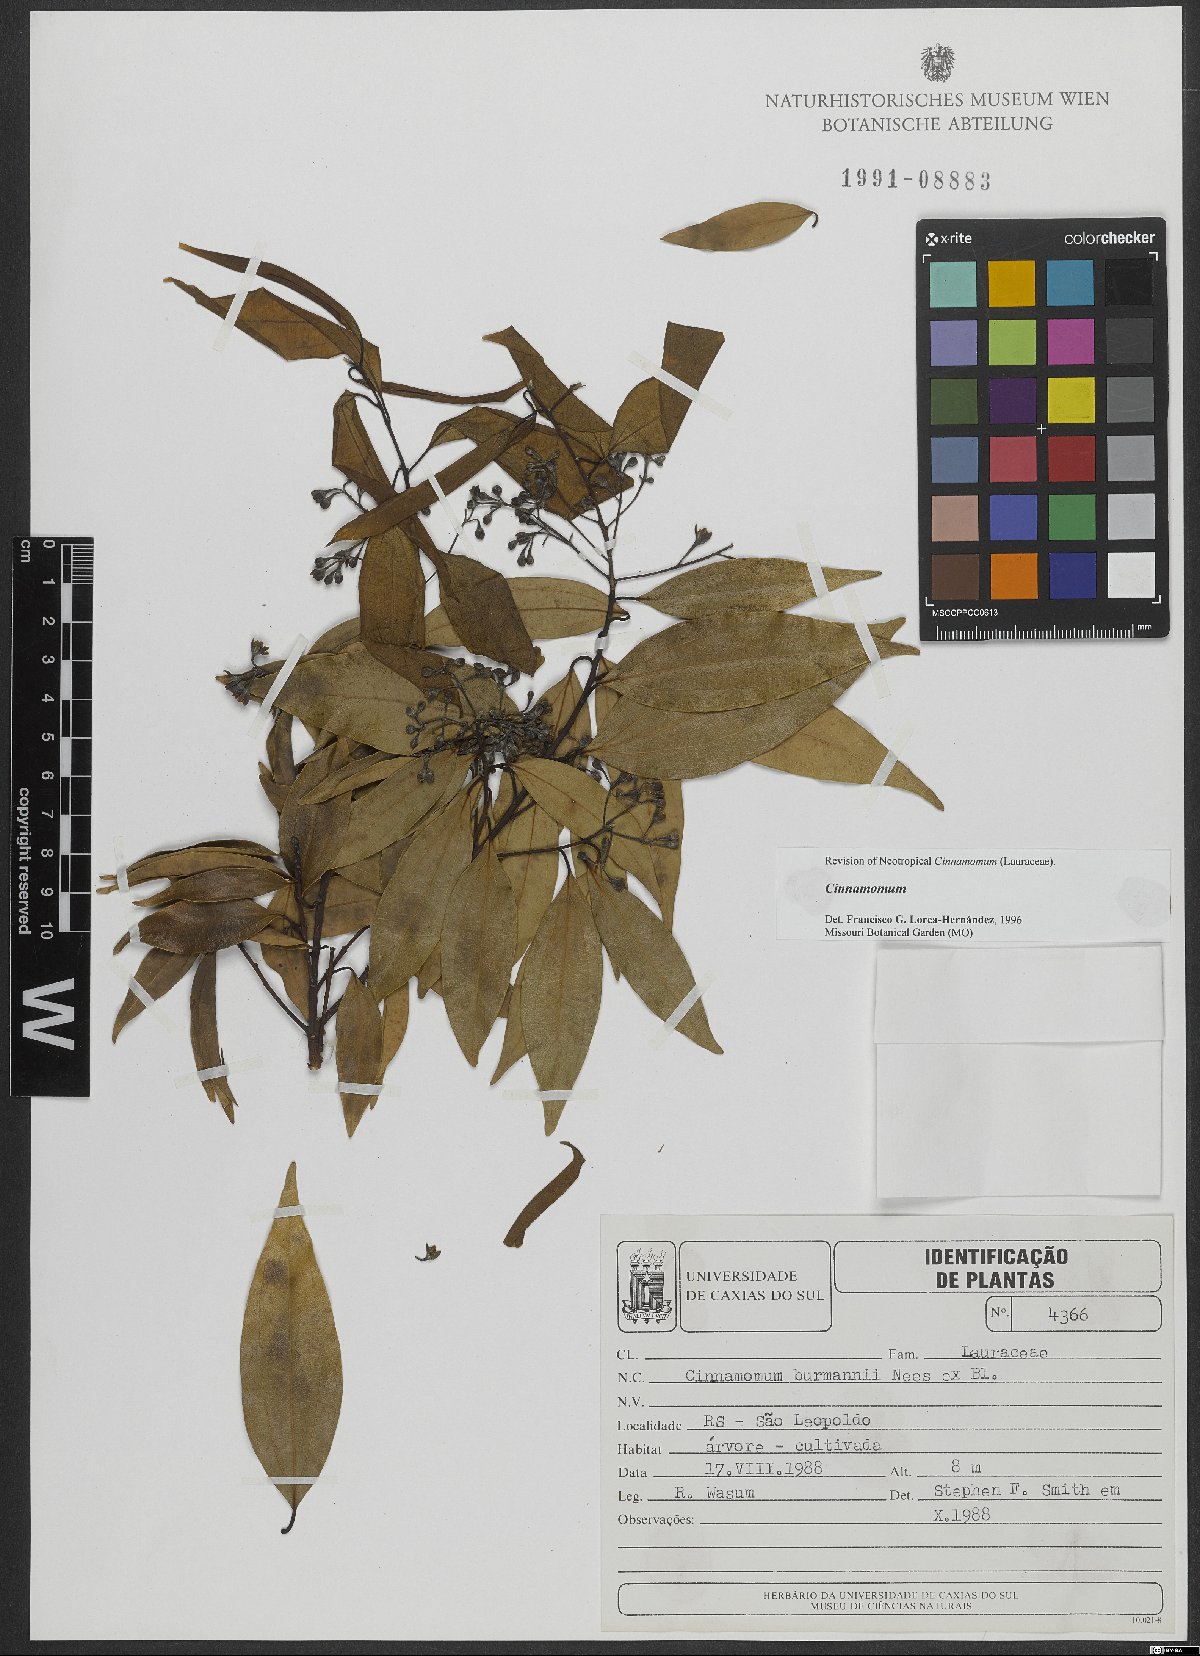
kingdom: Plantae
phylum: Tracheophyta
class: Magnoliopsida
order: Laurales
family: Lauraceae
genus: Cinnamomum
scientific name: Cinnamomum burmanni
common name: Padang cassia
